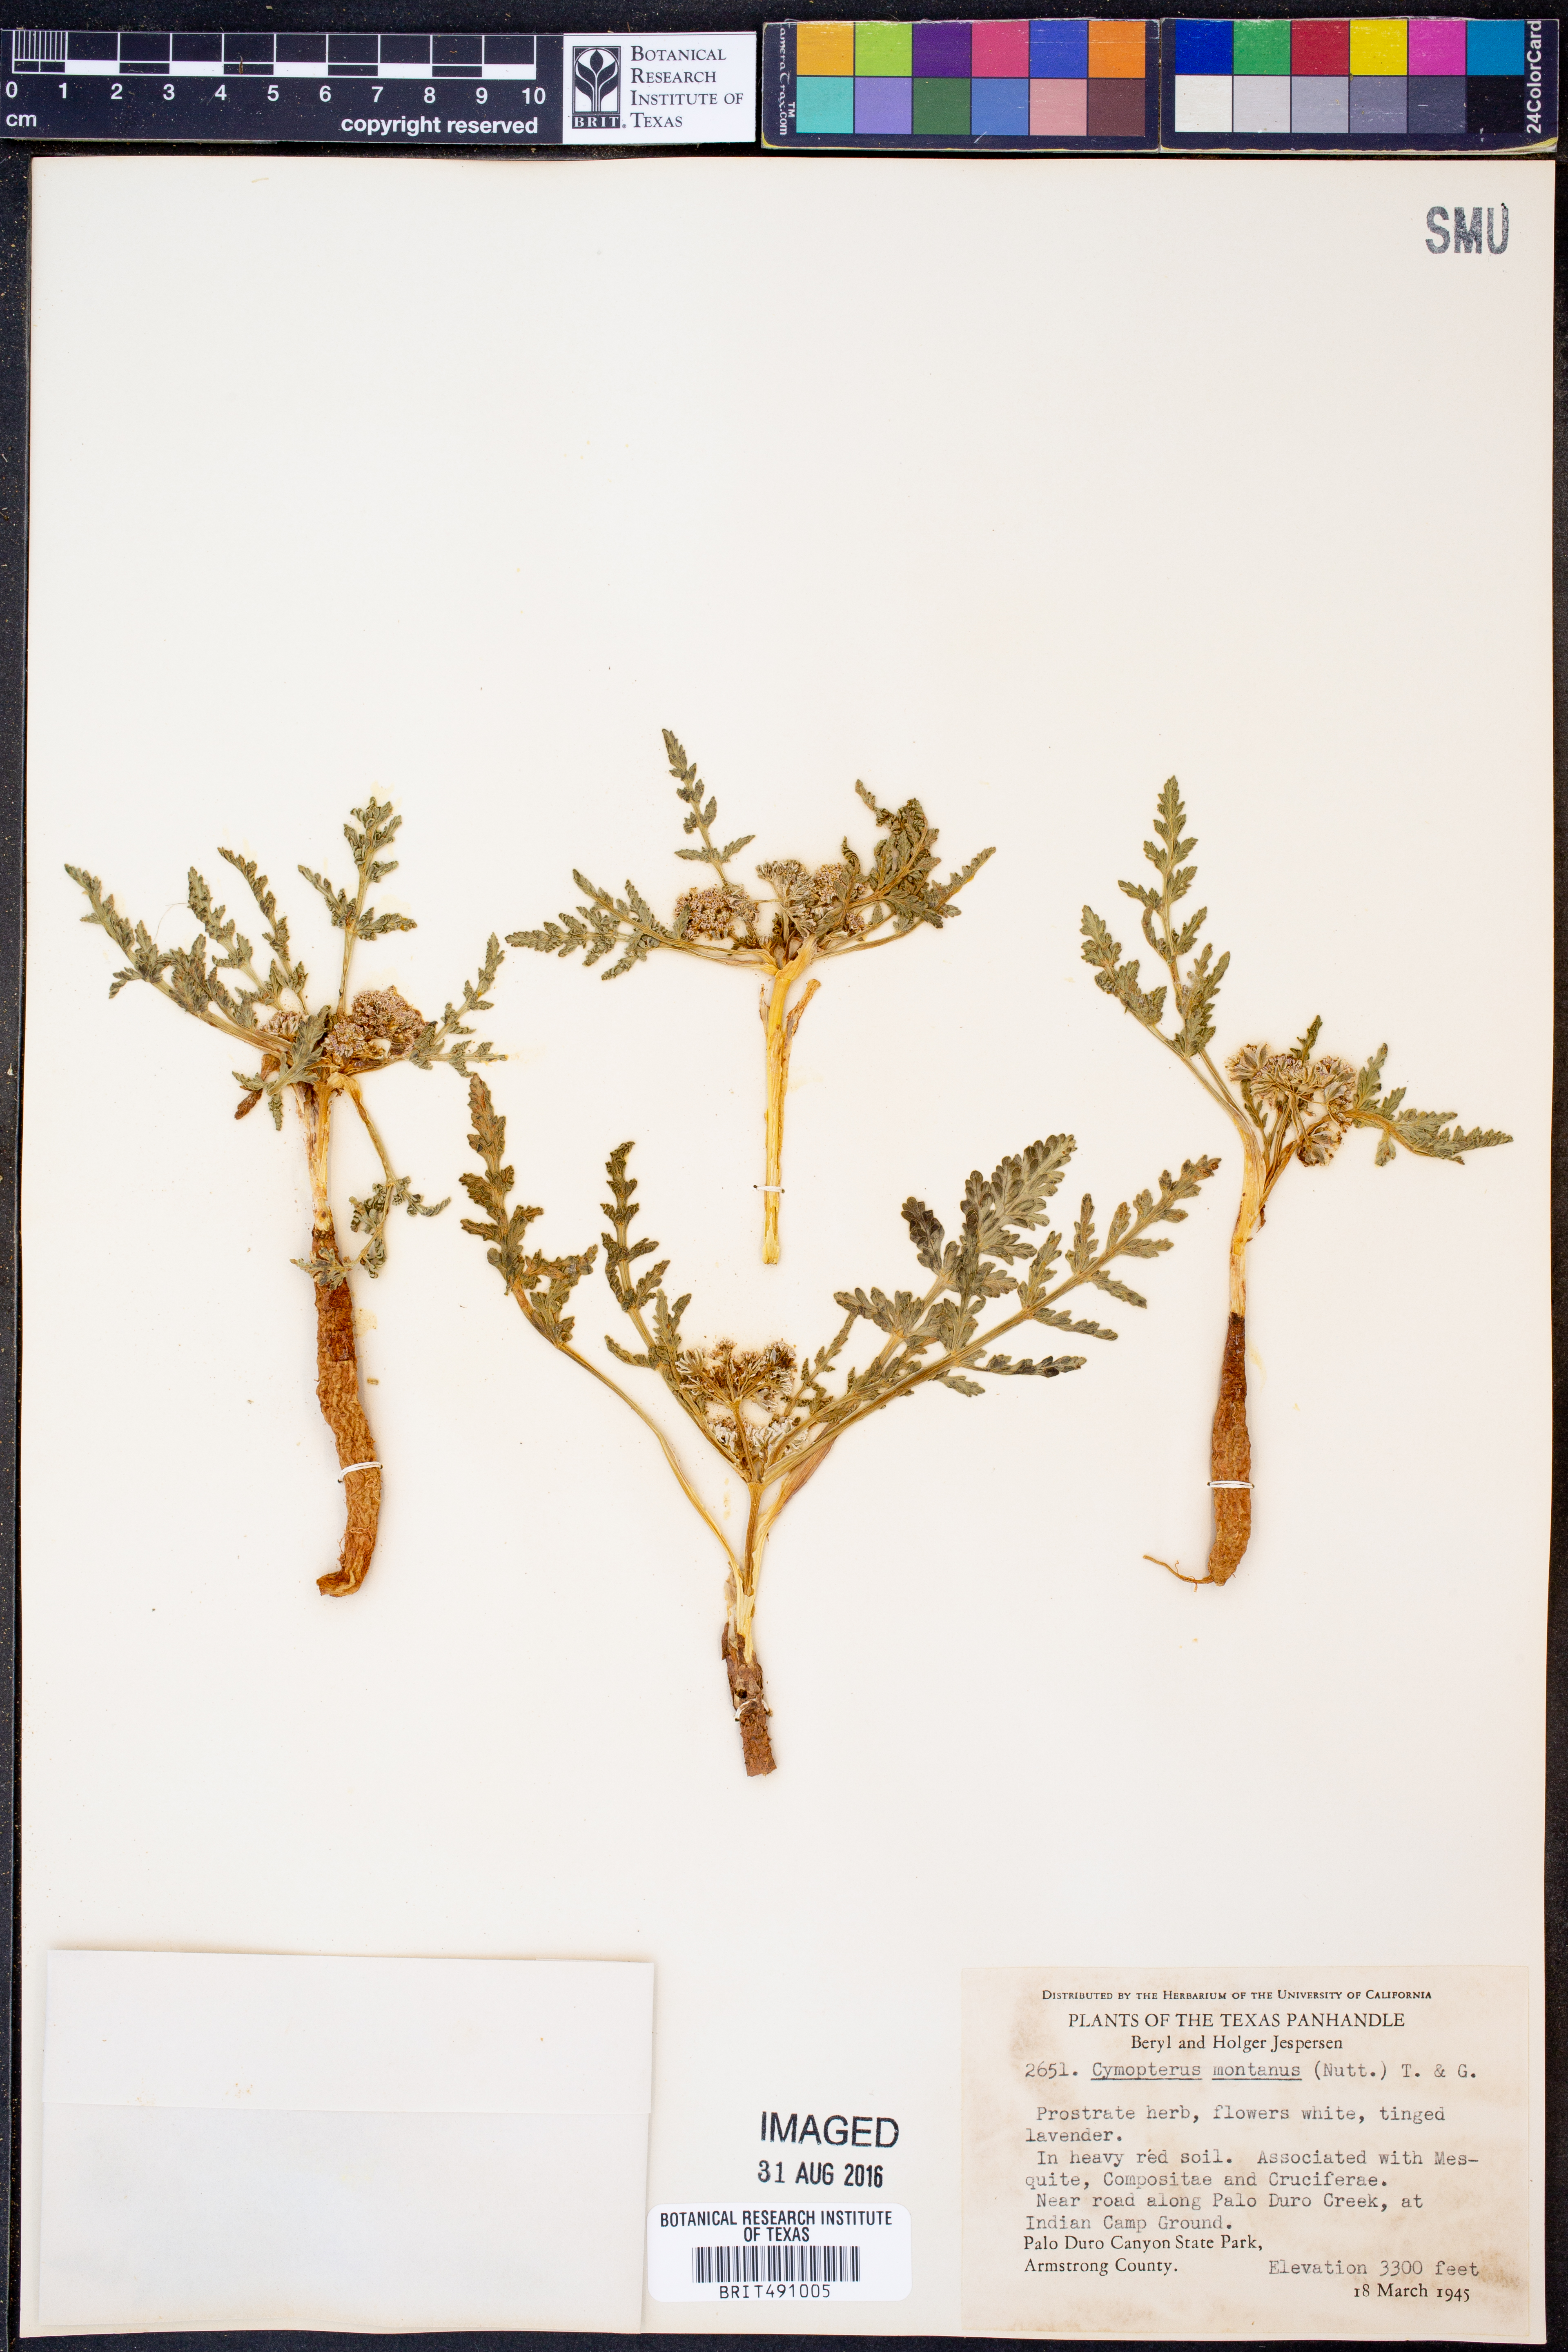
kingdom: Plantae
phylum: Tracheophyta
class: Magnoliopsida
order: Apiales
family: Apiaceae
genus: Vesper
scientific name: Vesper montanus
